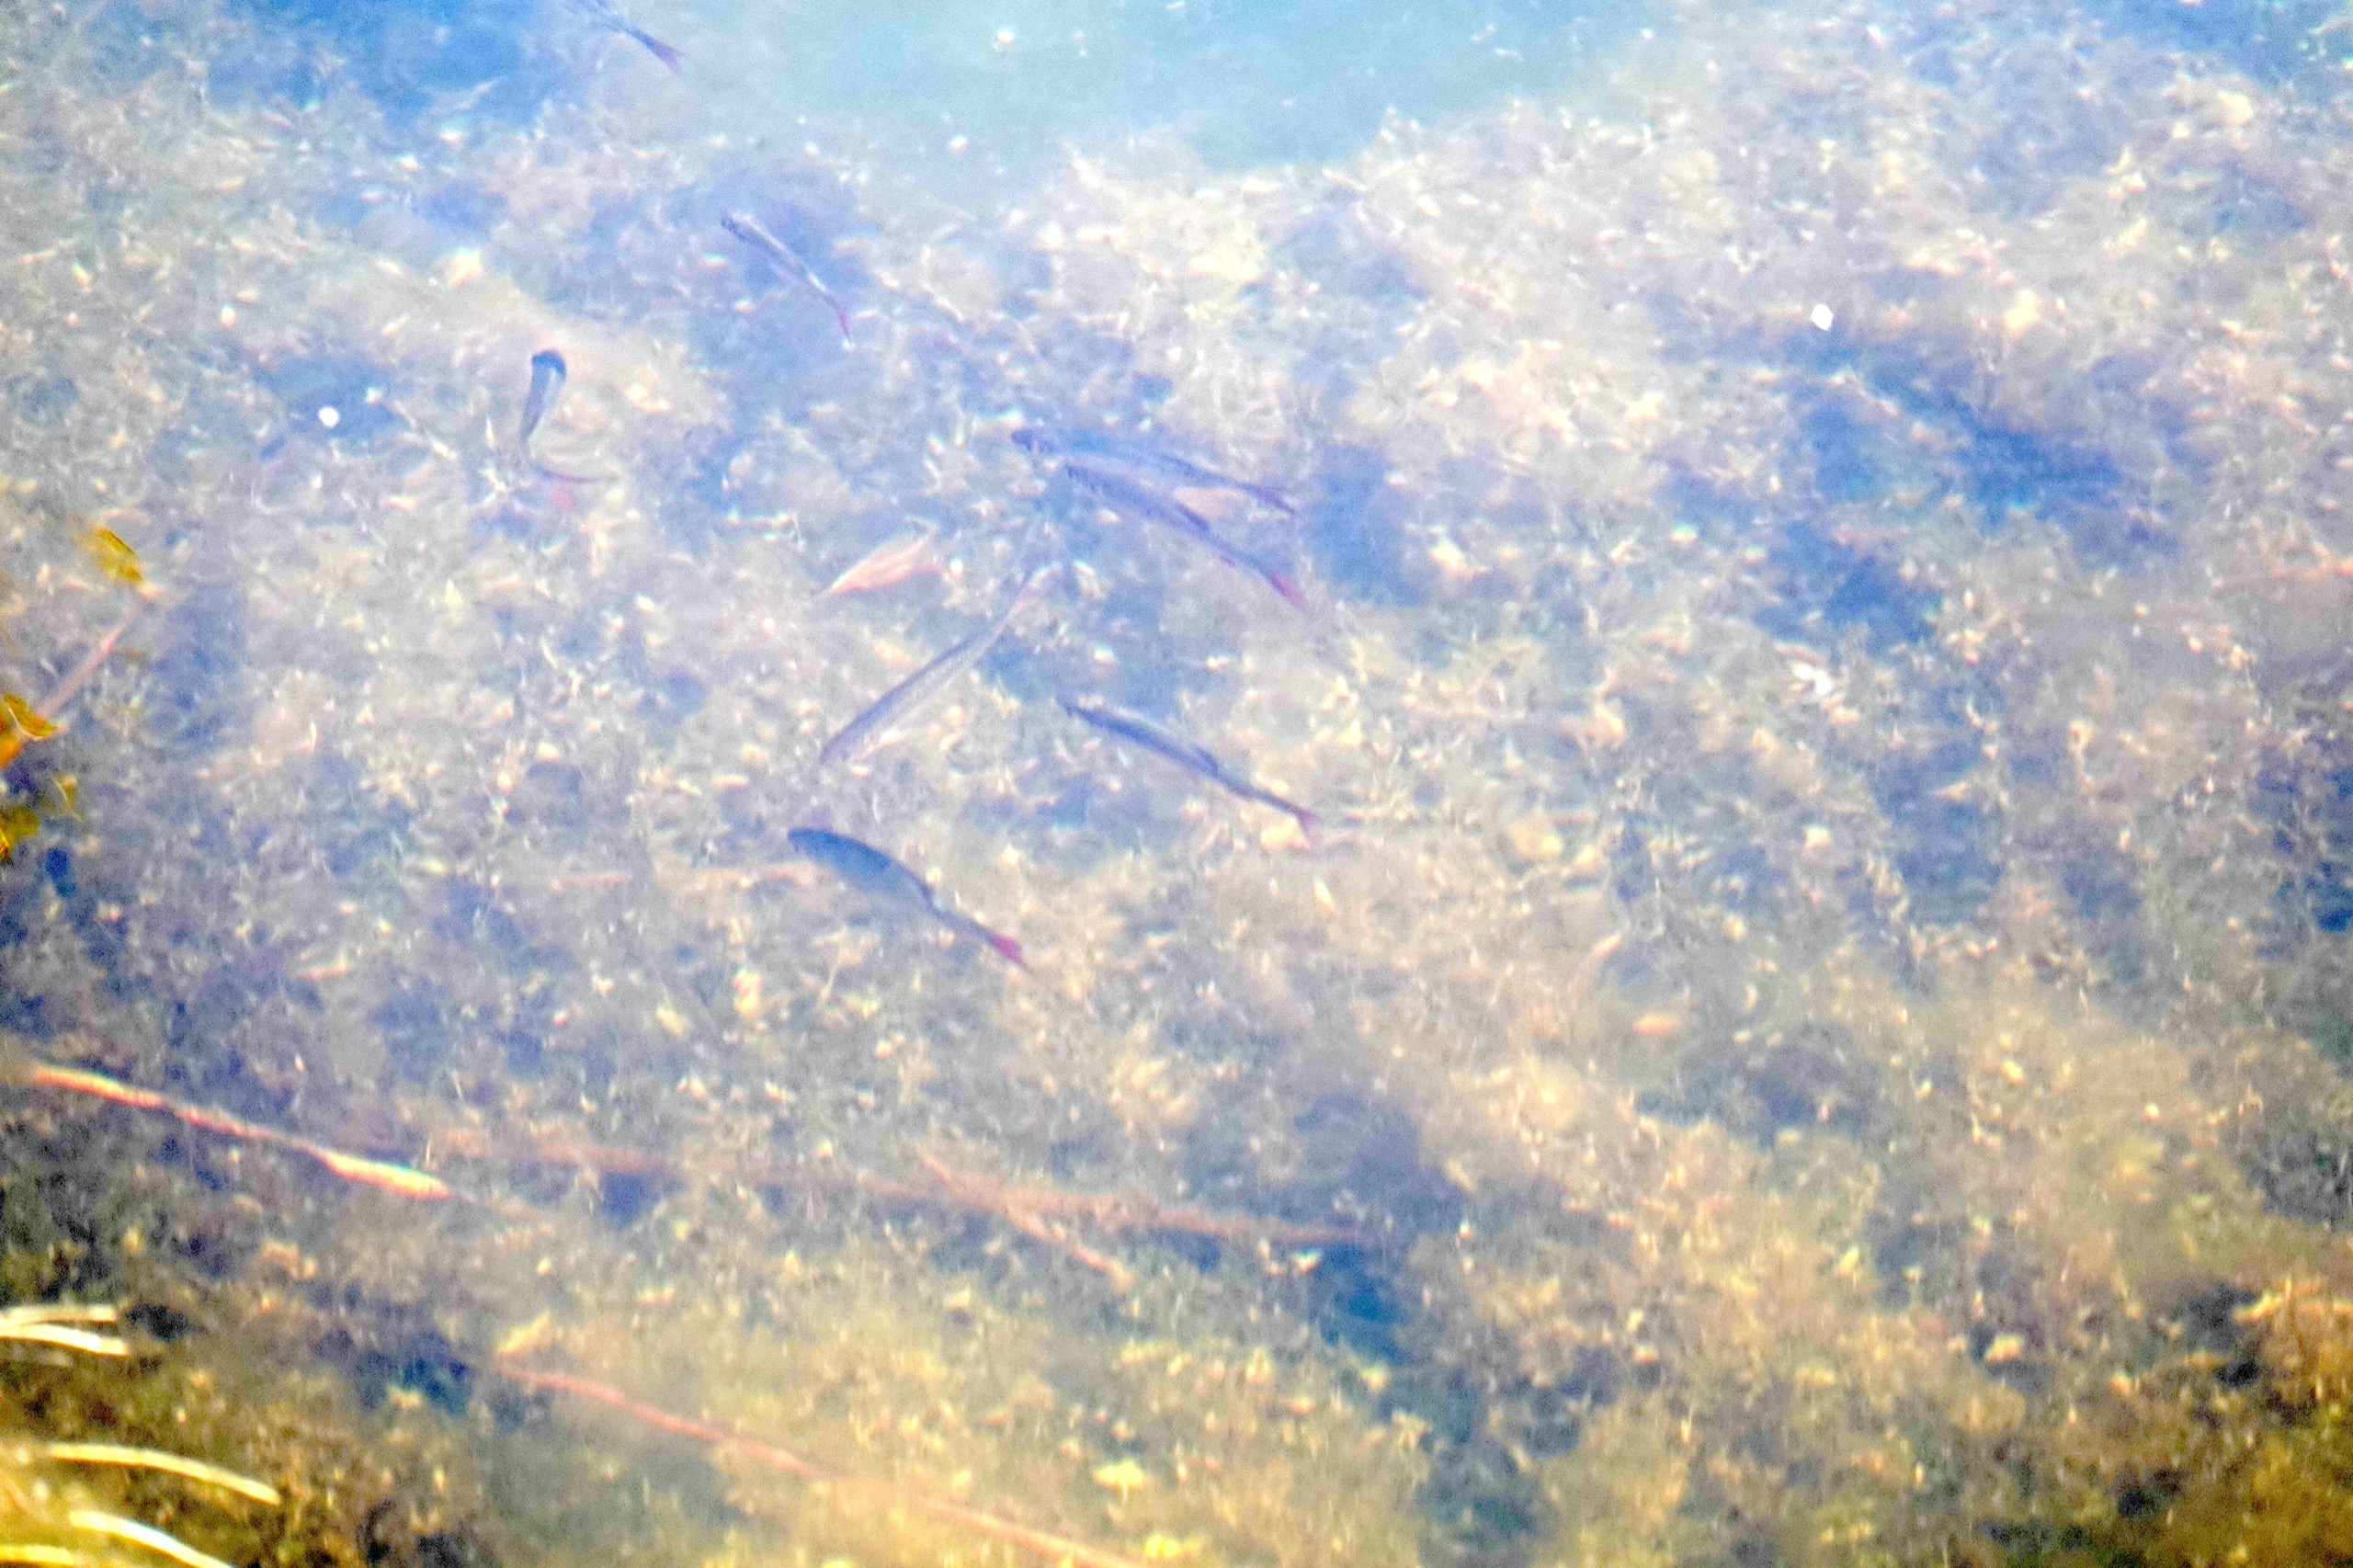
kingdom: Animalia
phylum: Chordata
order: Cypriniformes
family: Cyprinidae
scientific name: Cyprinidae
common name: Karpefamilien
